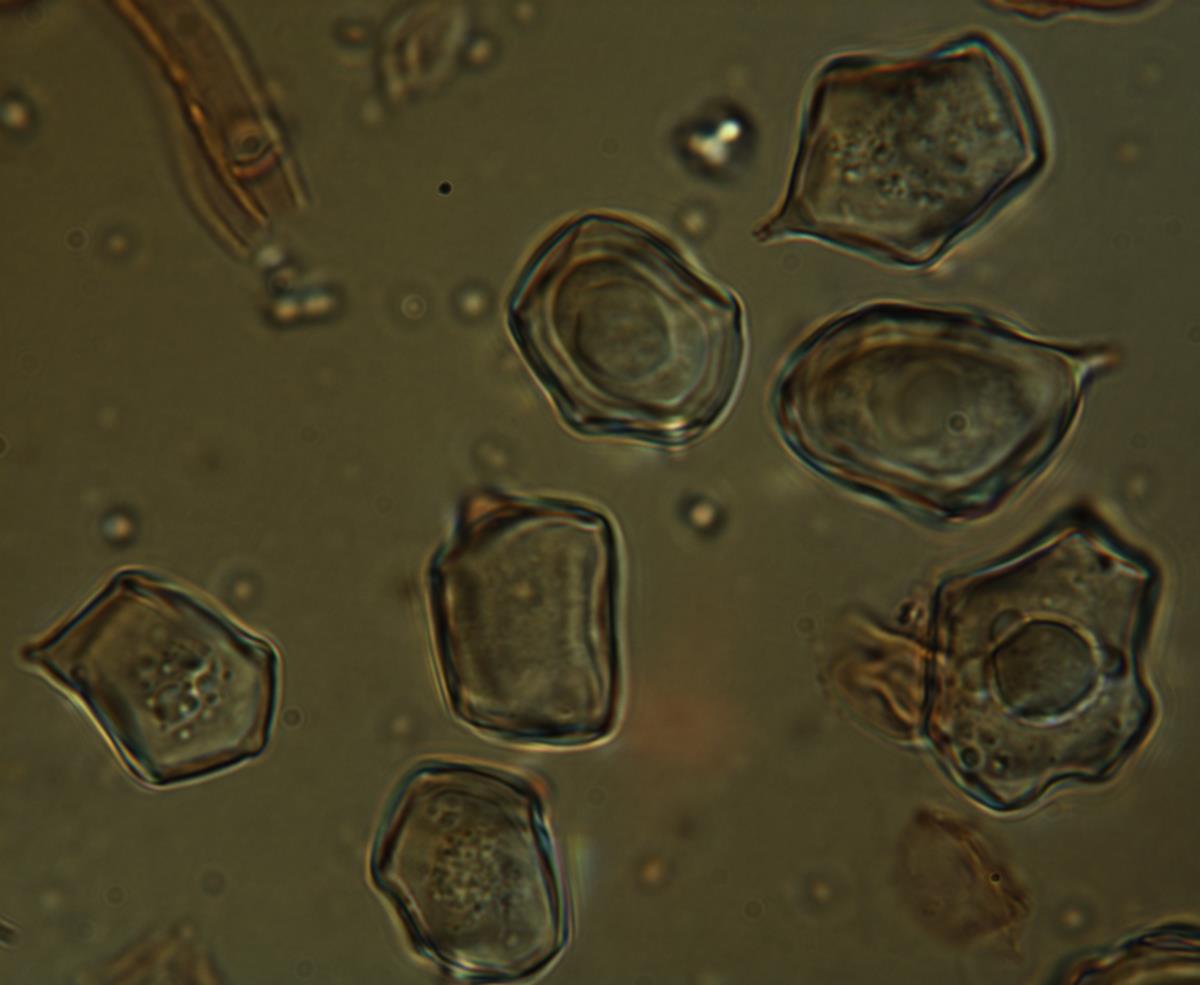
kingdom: Fungi
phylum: Basidiomycota
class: Agaricomycetes
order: Agaricales
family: Entolomataceae
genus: Entoloma
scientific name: Entoloma gasteromycetoides
